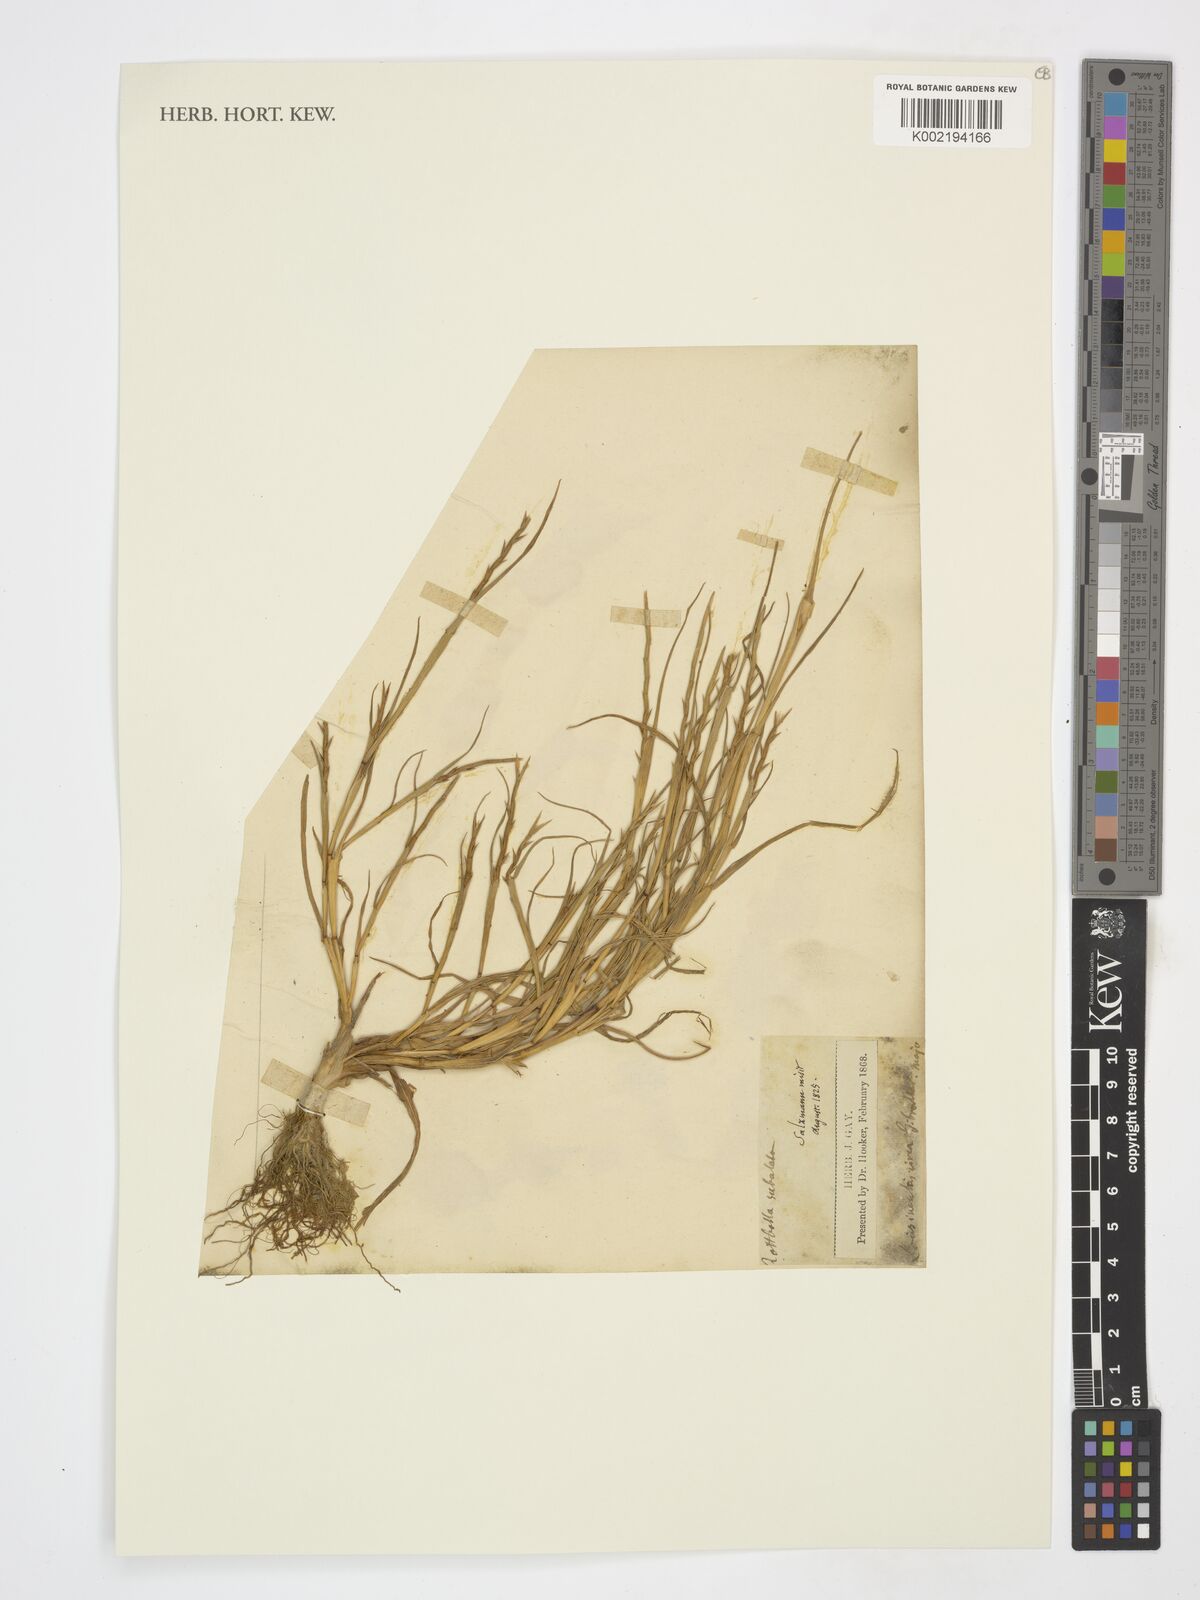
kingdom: Plantae
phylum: Tracheophyta
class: Liliopsida
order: Poales
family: Poaceae
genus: Parapholis
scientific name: Parapholis
